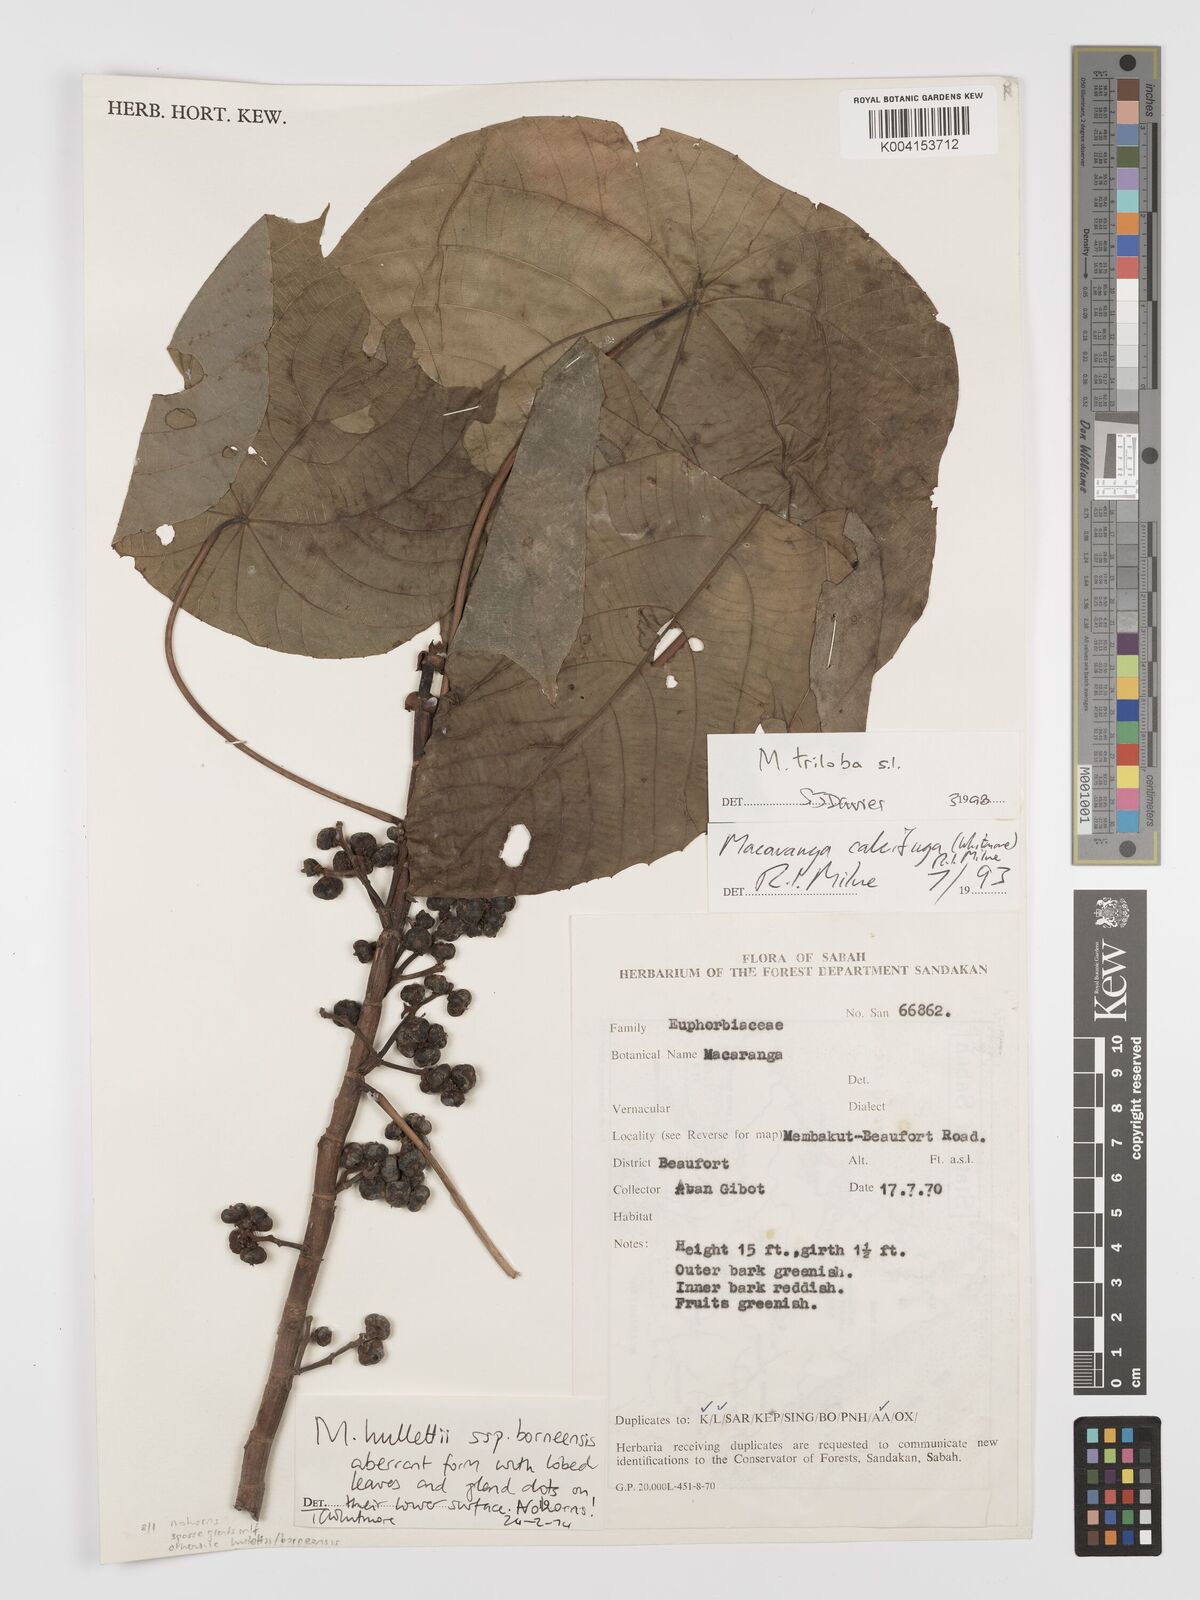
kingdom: Plantae
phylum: Tracheophyta
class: Magnoliopsida
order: Malpighiales
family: Euphorbiaceae
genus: Macaranga
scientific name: Macaranga triloba
